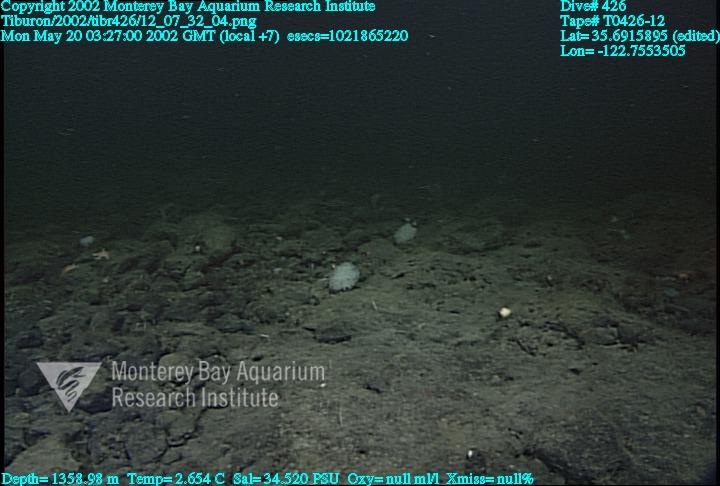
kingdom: Animalia
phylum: Porifera
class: Hexactinellida
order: Sceptrulophora
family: Farreidae
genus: Farrea
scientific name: Farrea occa
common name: Reversed glass sponge
